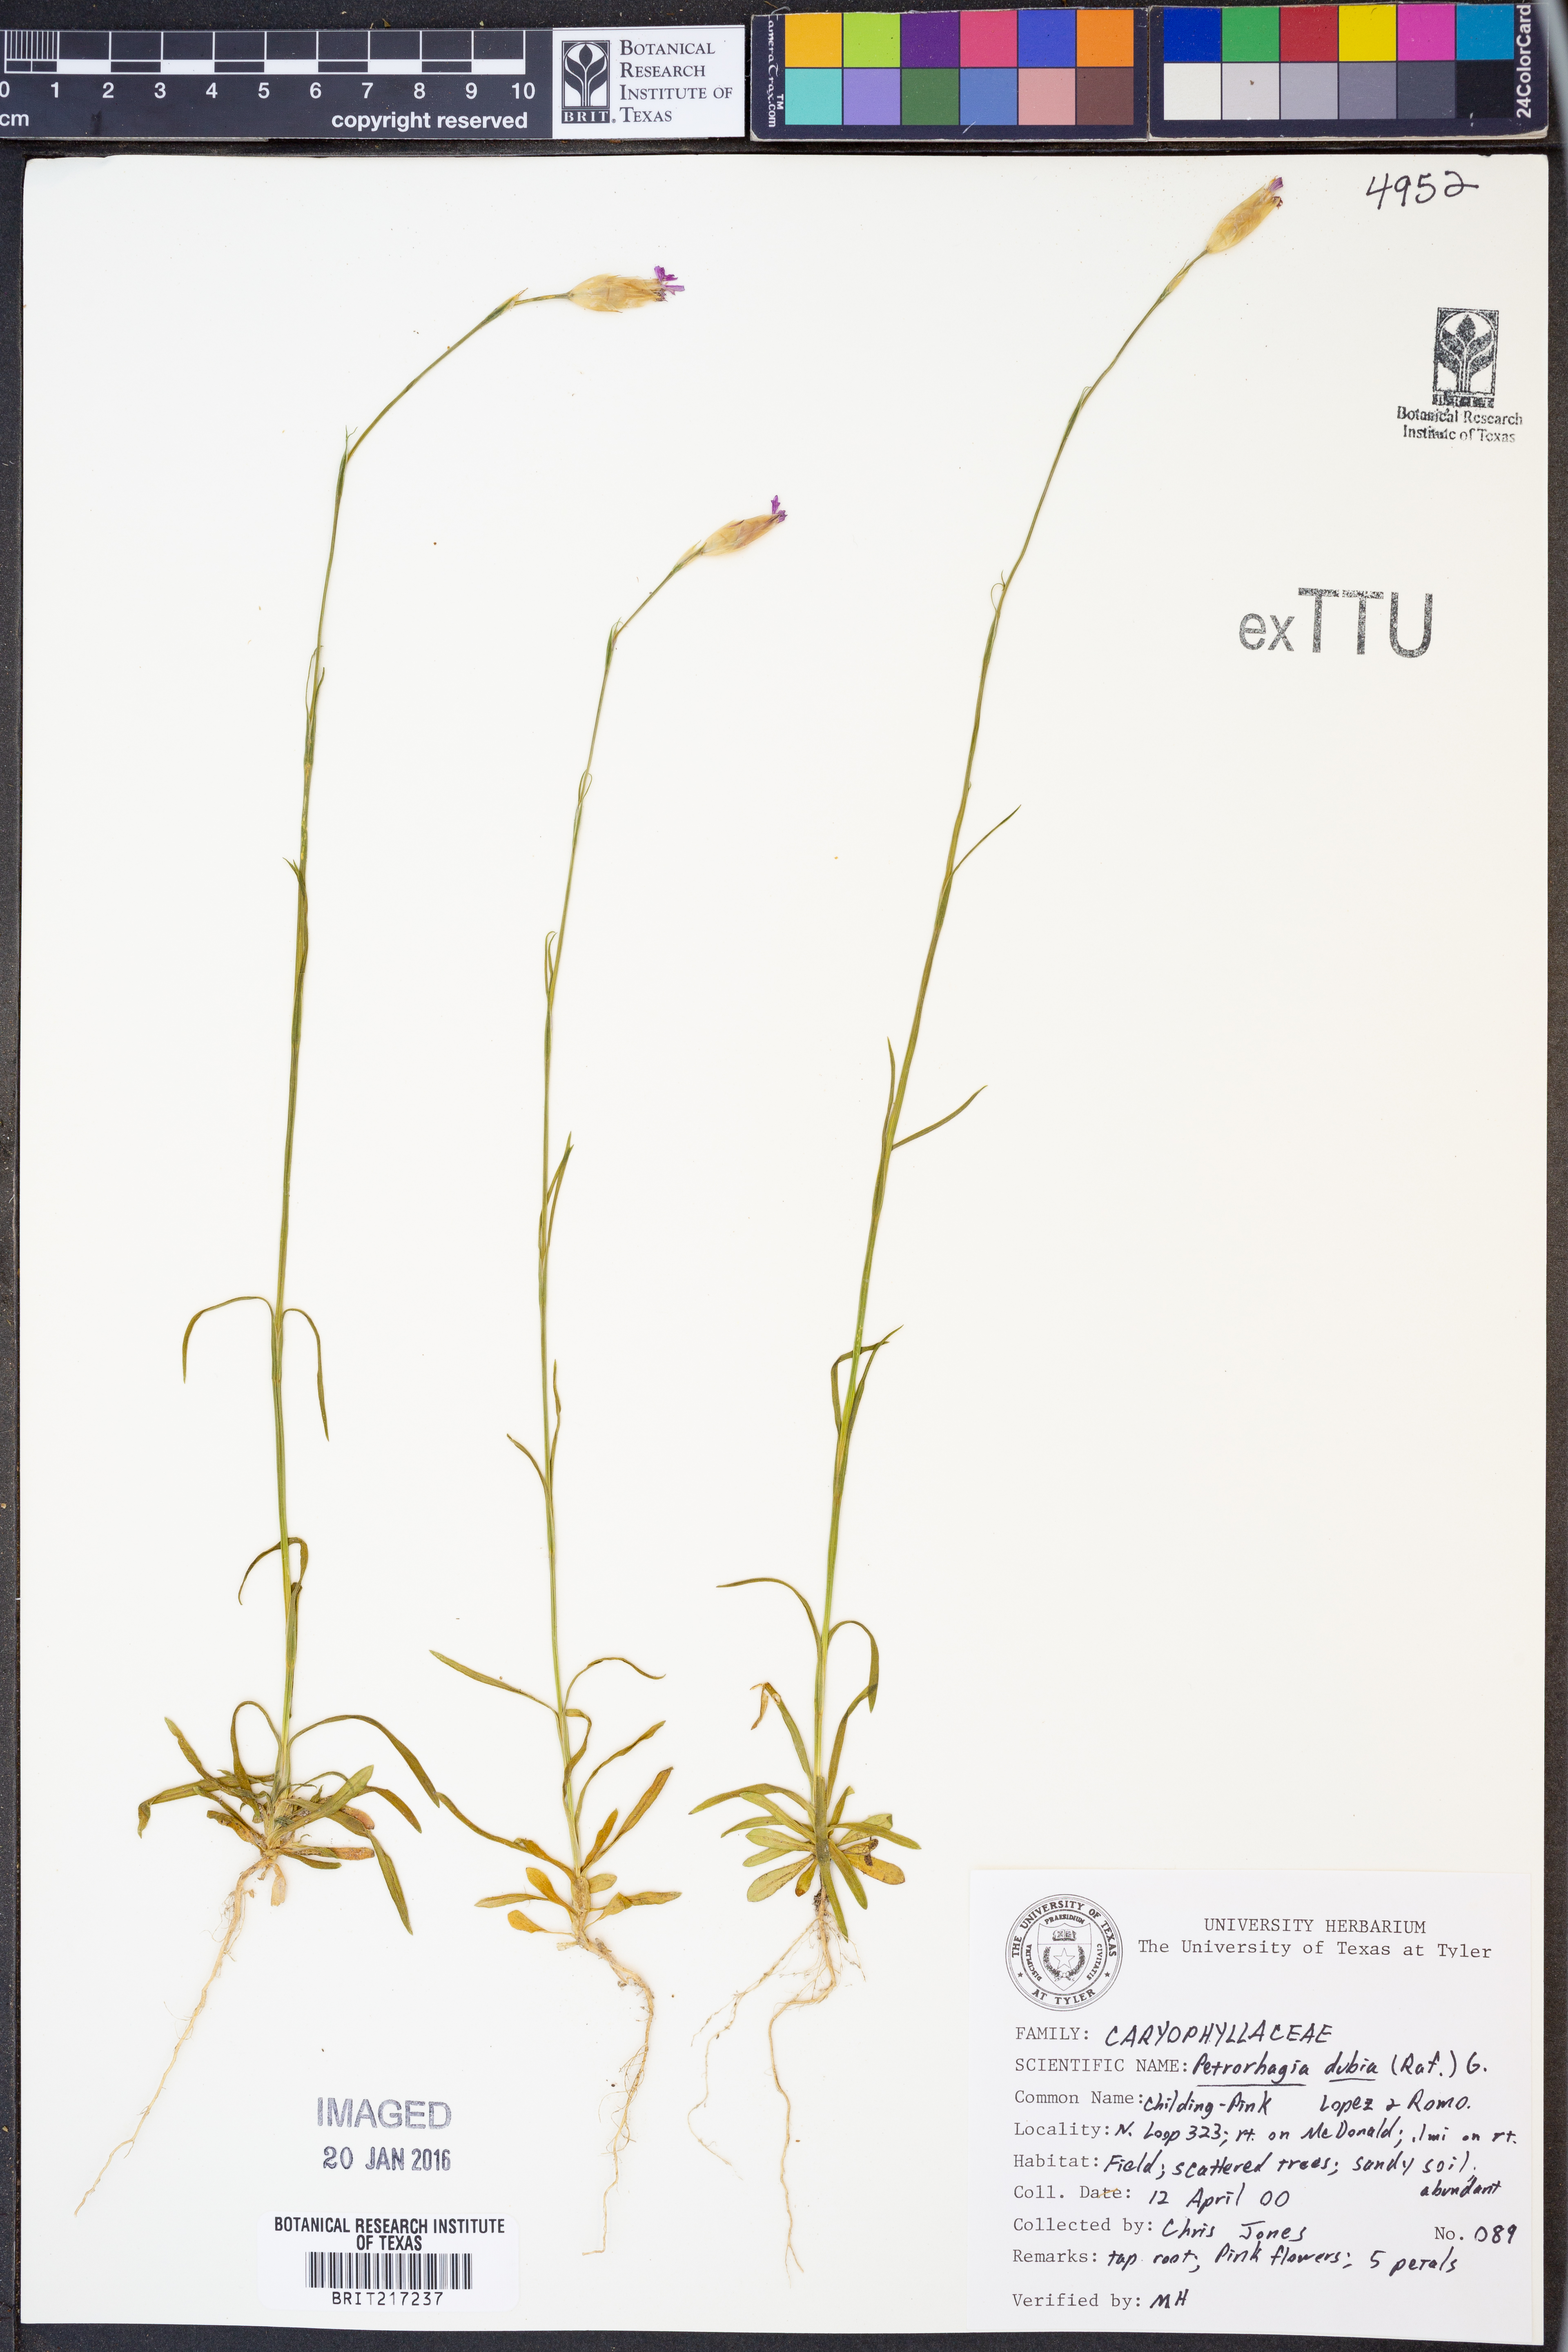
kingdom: Plantae
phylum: Tracheophyta
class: Magnoliopsida
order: Caryophyllales
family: Caryophyllaceae
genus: Petrorhagia
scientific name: Petrorhagia dubia
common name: Hairypink
